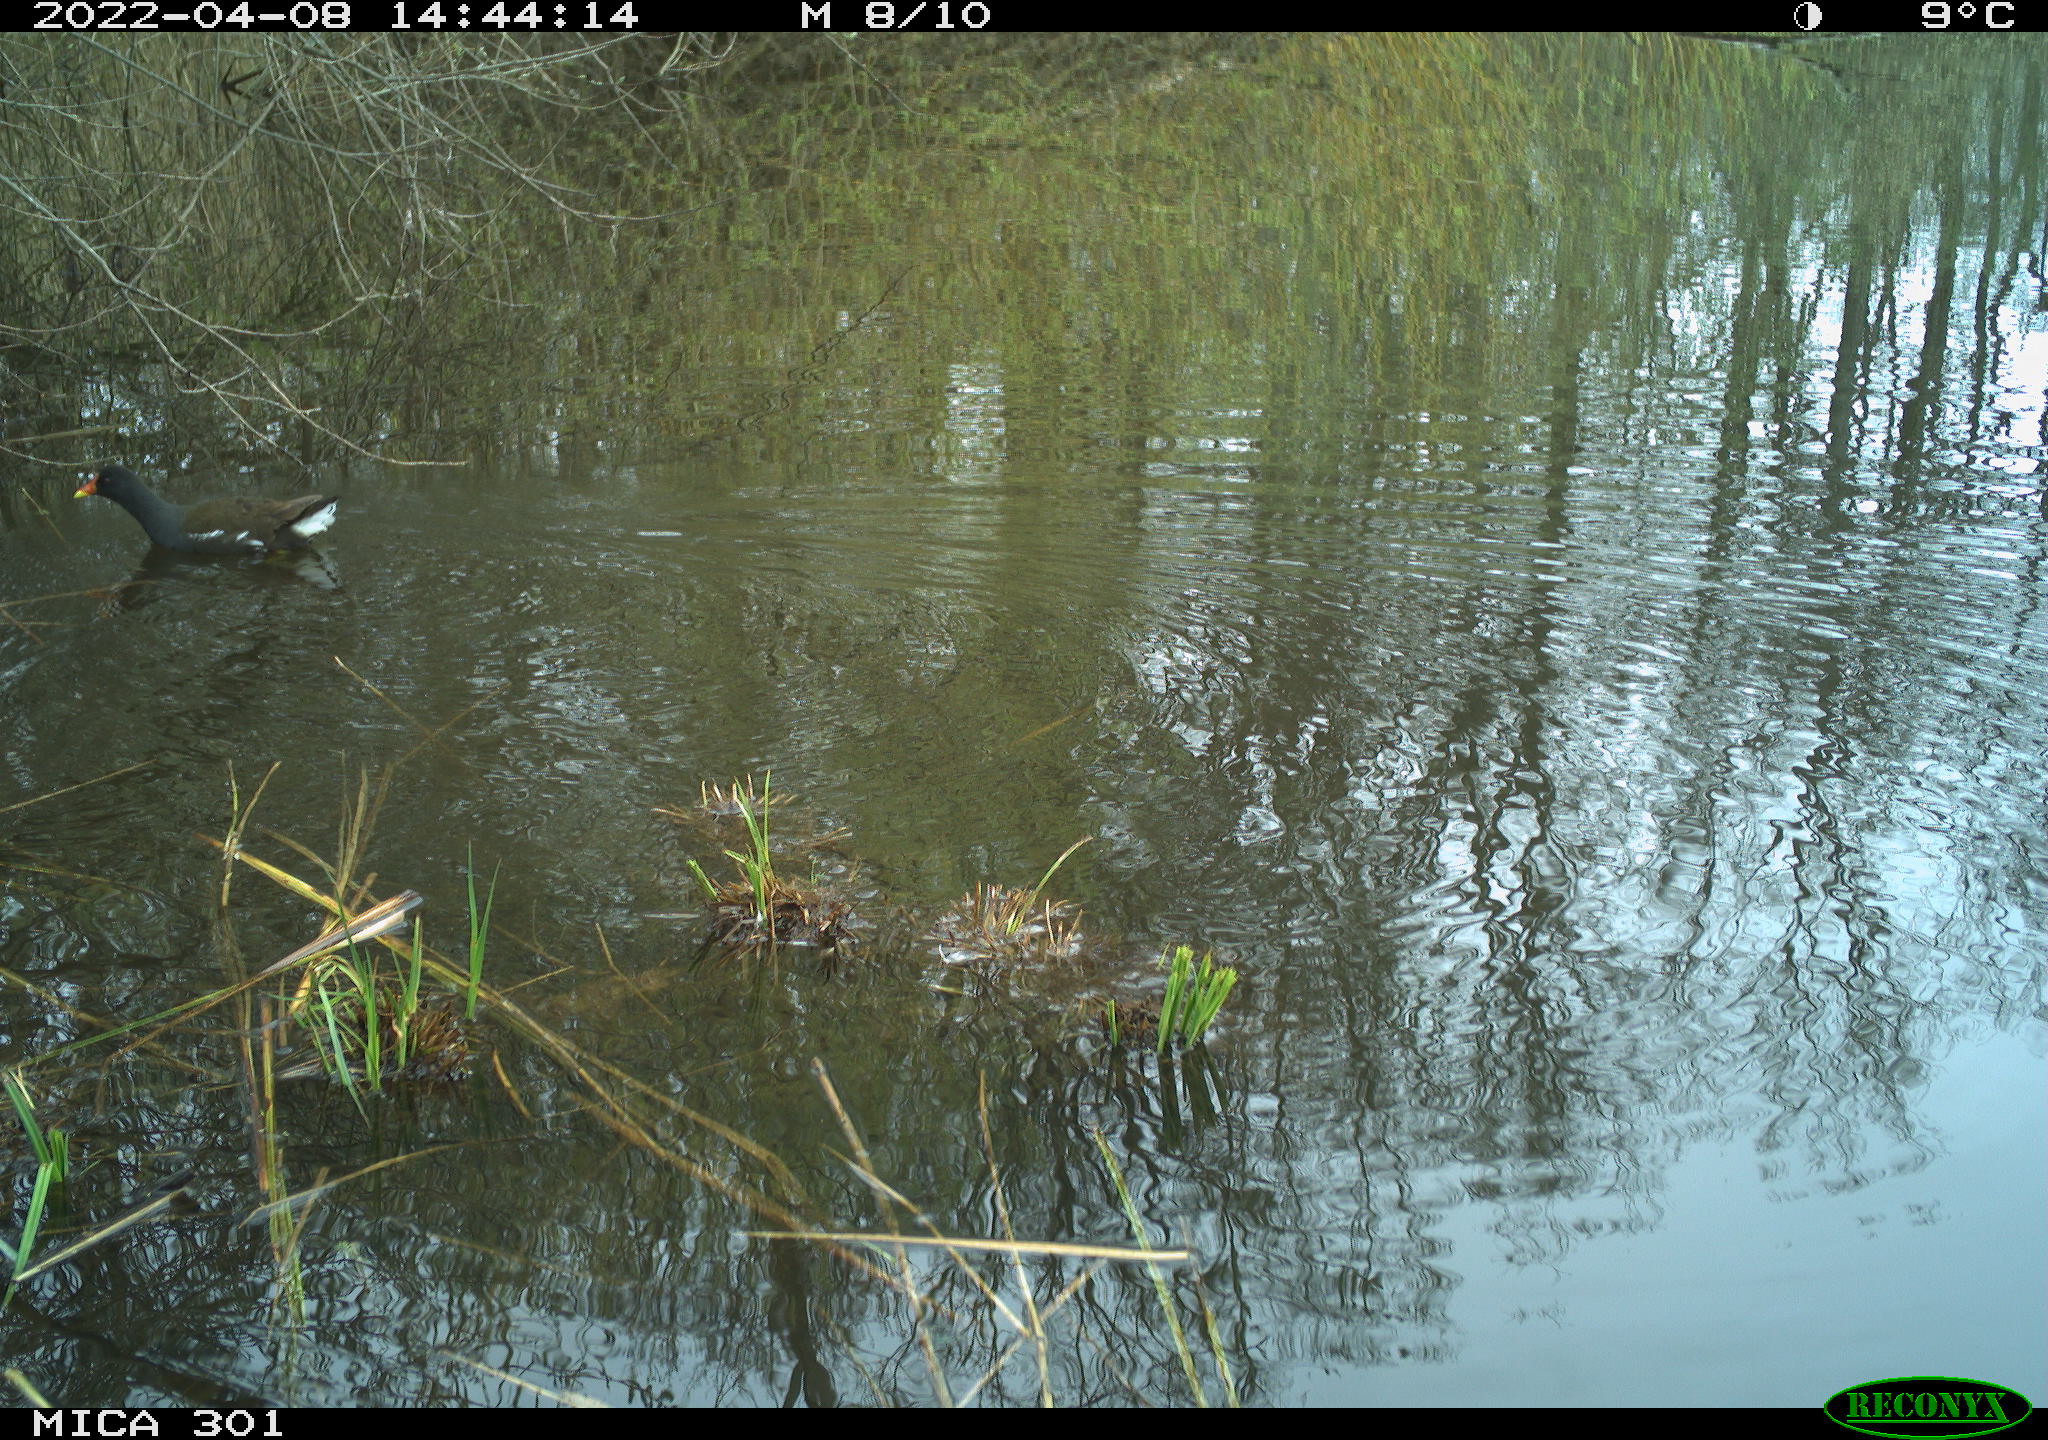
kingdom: Animalia
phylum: Chordata
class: Aves
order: Gruiformes
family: Rallidae
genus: Gallinula
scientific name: Gallinula chloropus
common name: Common moorhen
